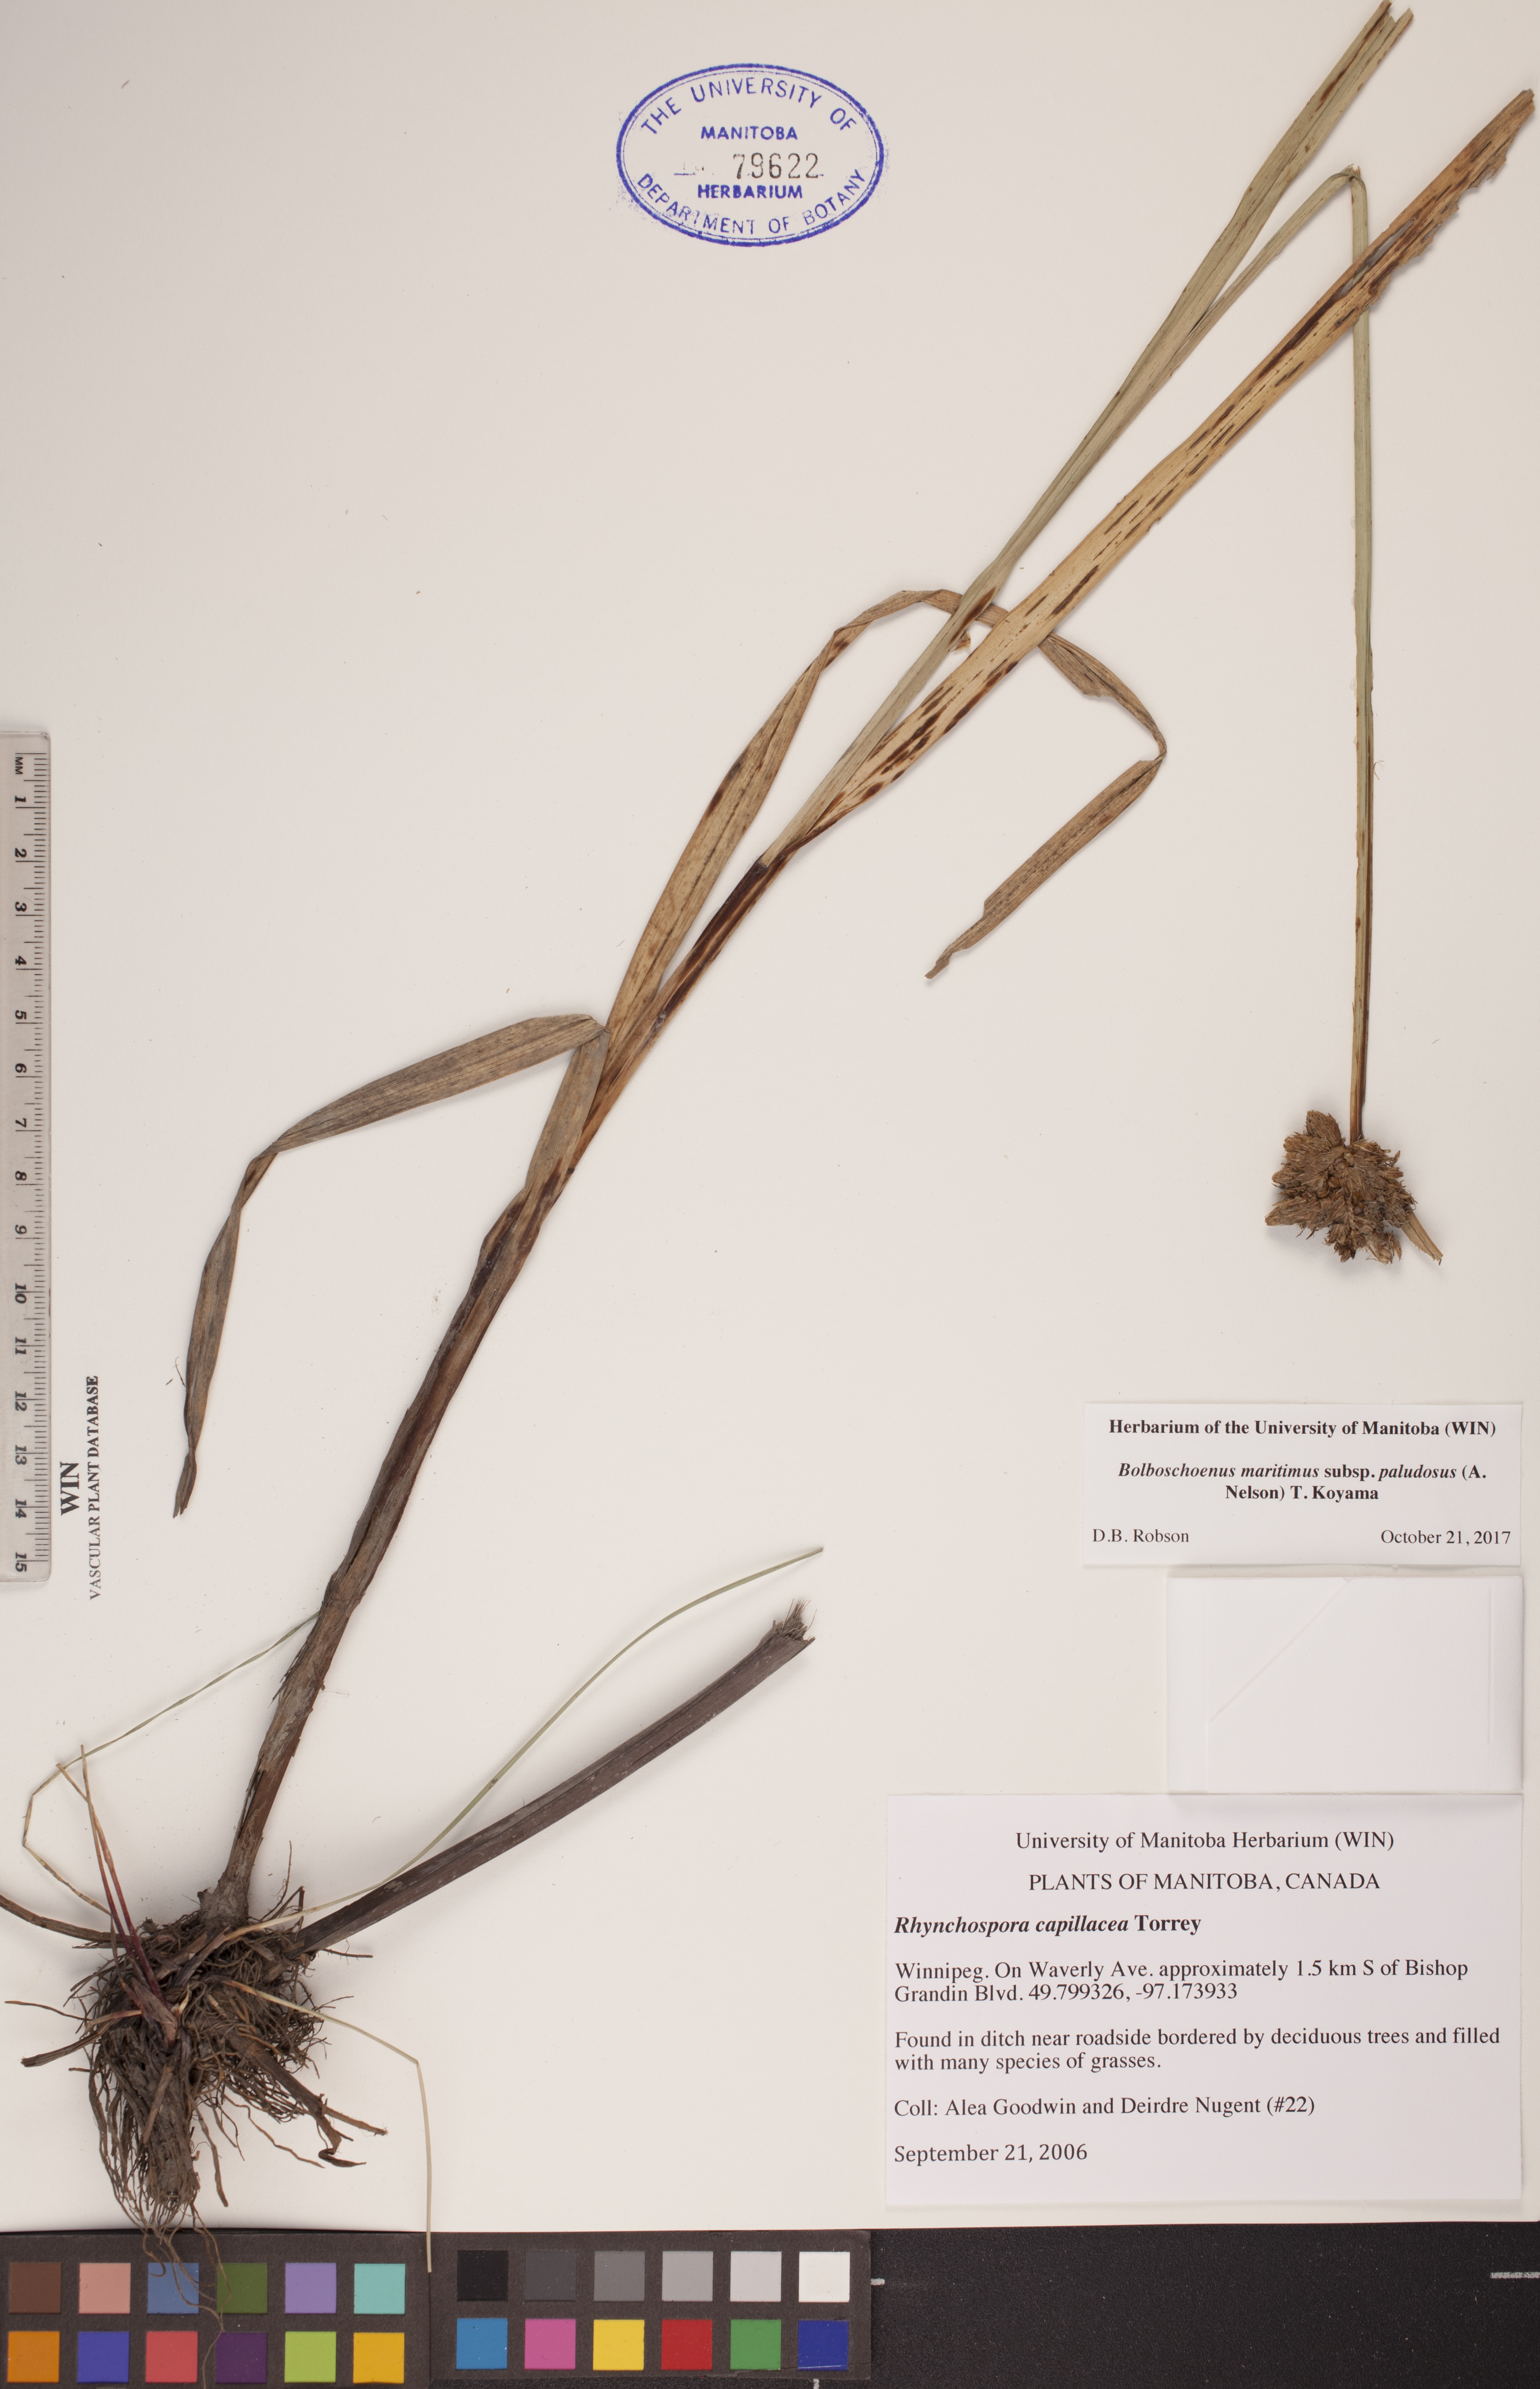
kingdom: Plantae
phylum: Tracheophyta
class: Liliopsida
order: Poales
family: Cyperaceae
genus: Bolboschoenus
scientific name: Bolboschoenus maritimus
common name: Sea club-rush
